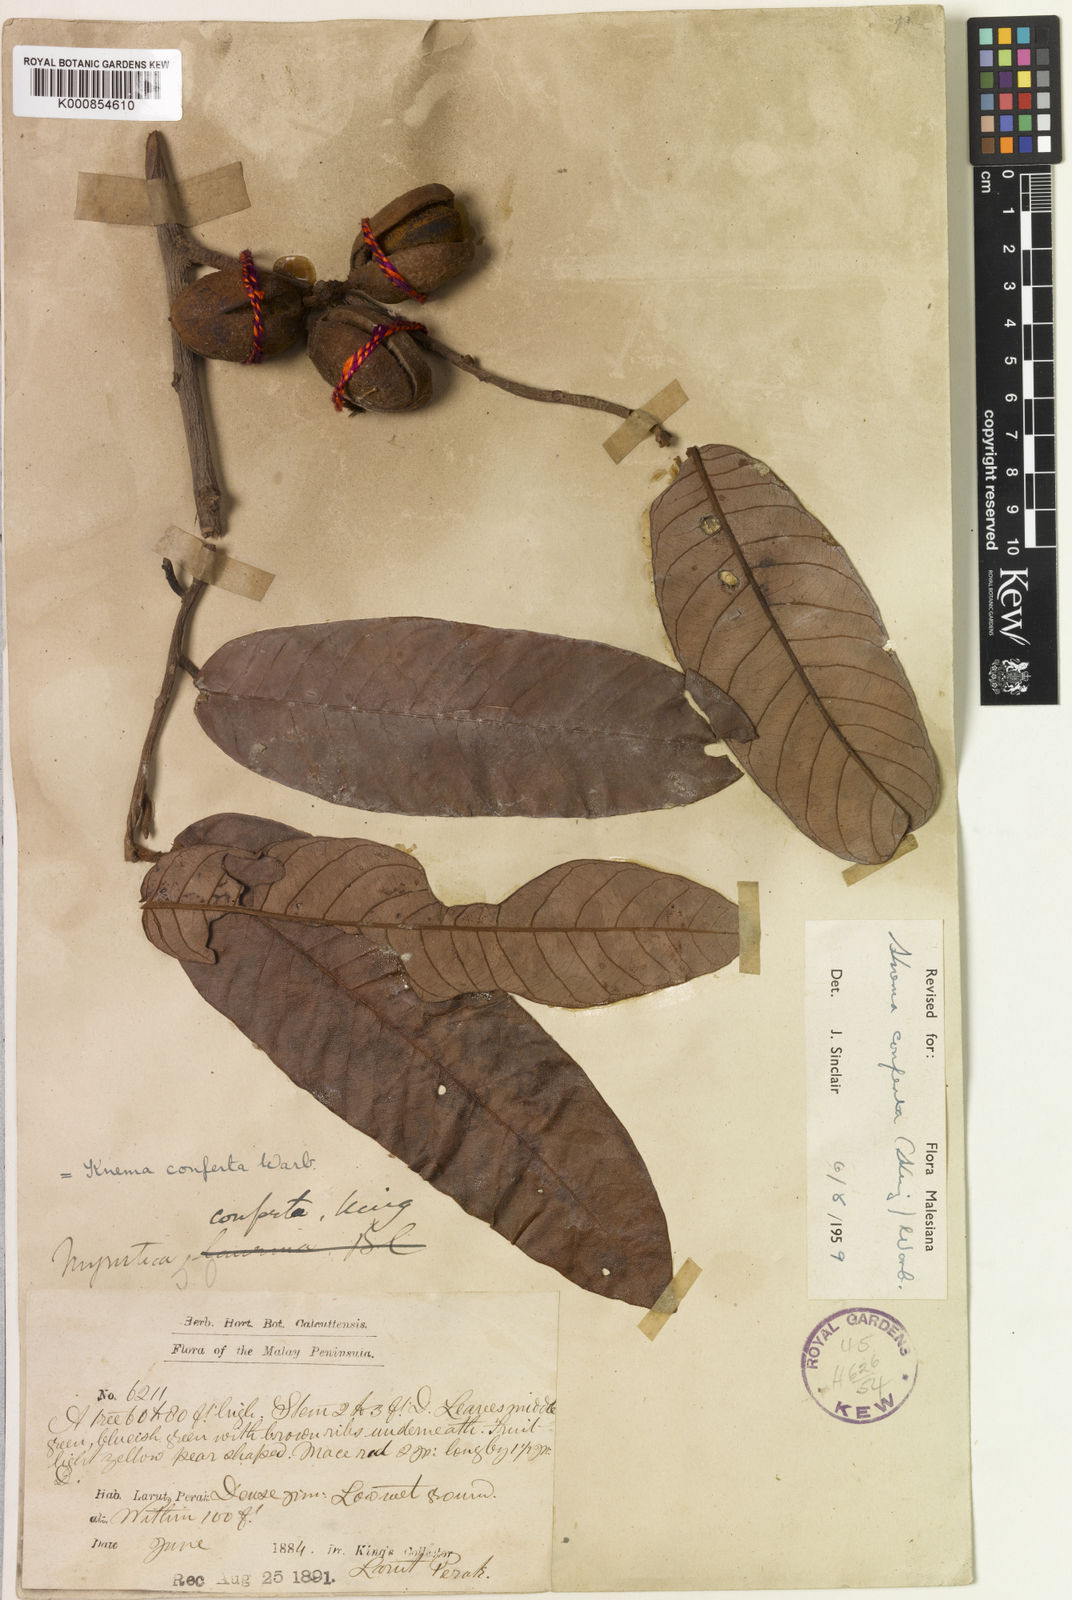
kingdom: Plantae
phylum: Tracheophyta
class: Magnoliopsida
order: Magnoliales
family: Myristicaceae
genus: Knema
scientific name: Knema conferta
